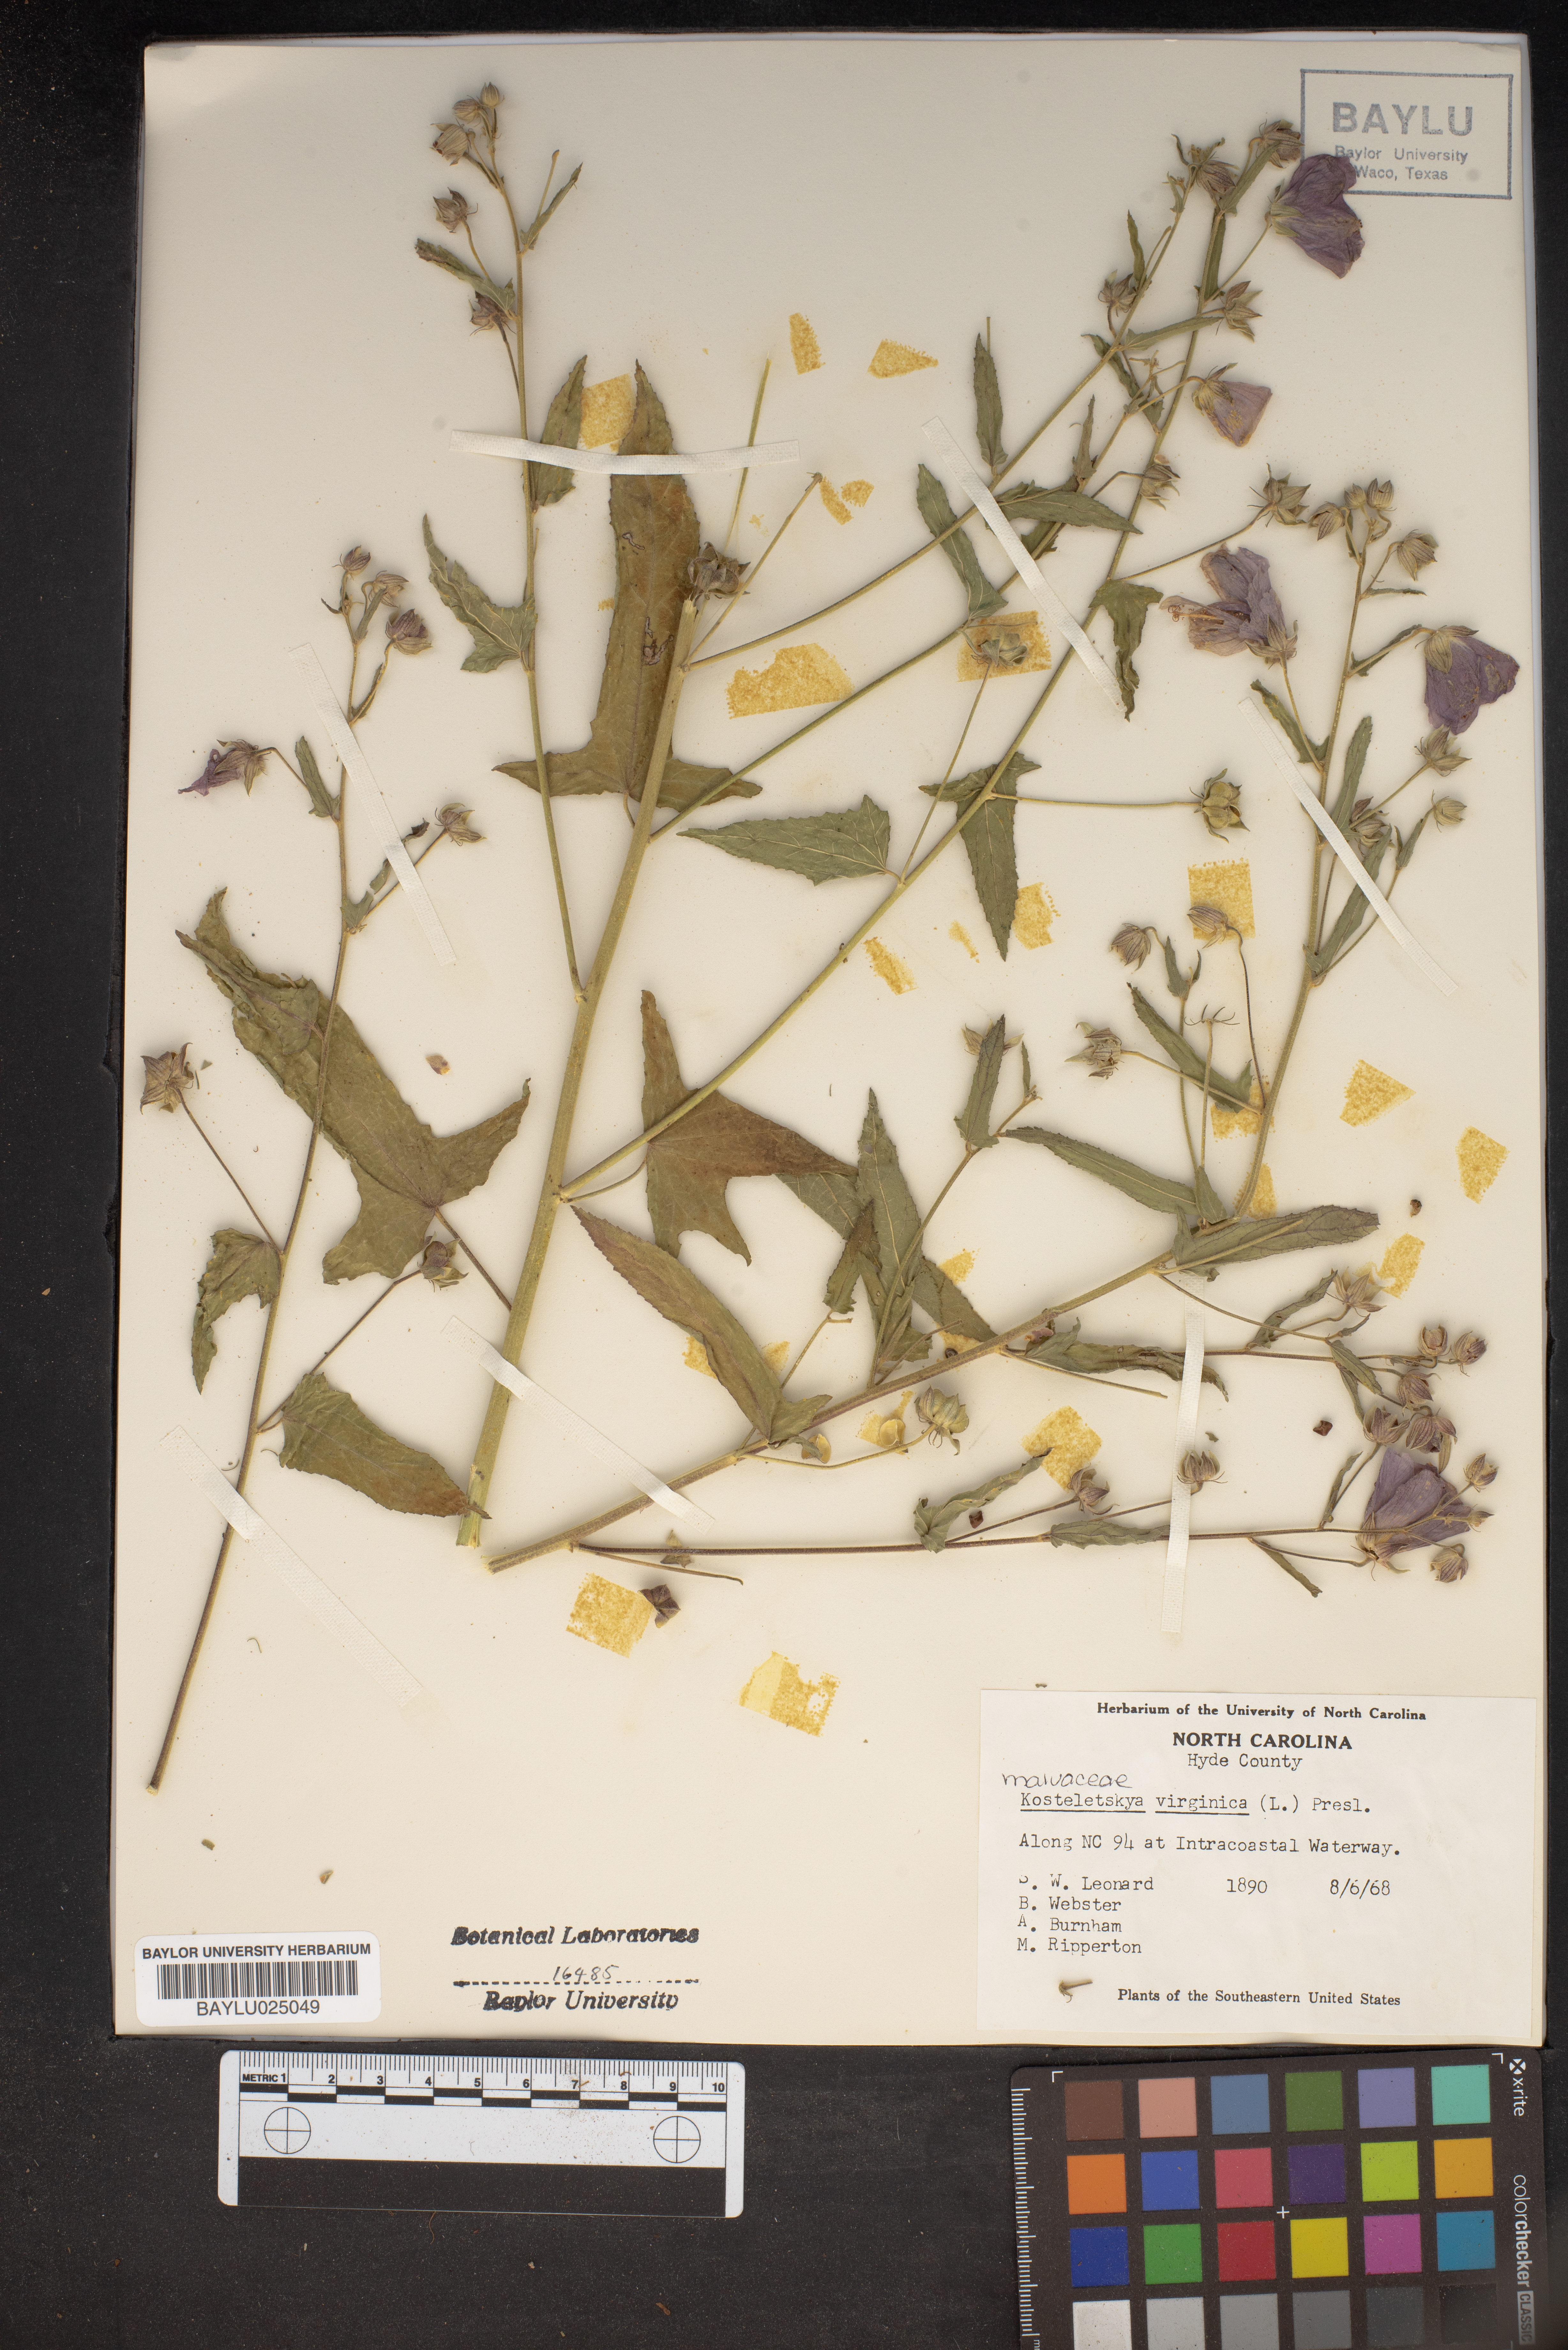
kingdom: Plantae
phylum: Tracheophyta
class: Magnoliopsida
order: Malvales
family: Malvaceae
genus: Kosteletzkya
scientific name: Kosteletzkya pentacarpos
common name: Virginia saltmarsh mallow
